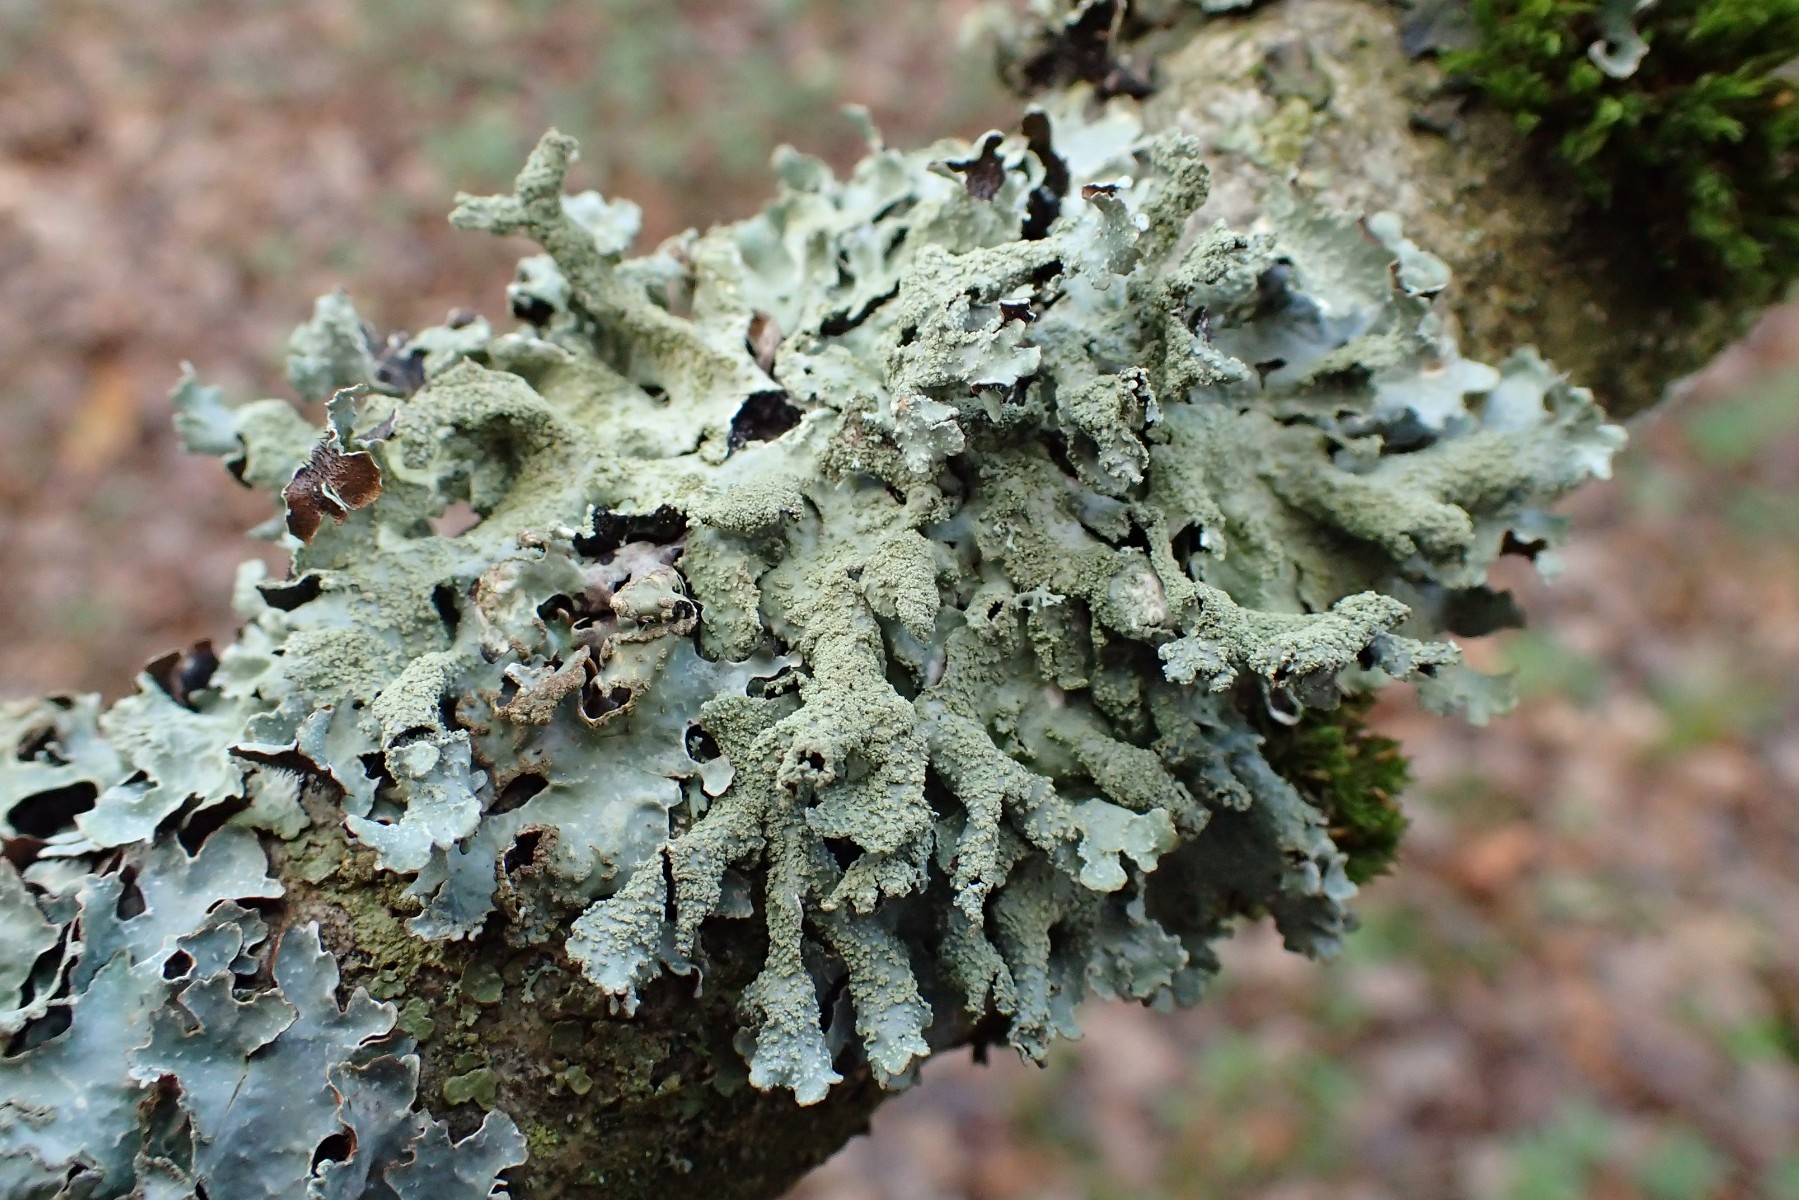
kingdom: Fungi
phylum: Ascomycota
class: Lecanoromycetes
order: Lecanorales
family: Parmeliaceae
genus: Parmelia
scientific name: Parmelia submontana
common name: langlobet skållav
